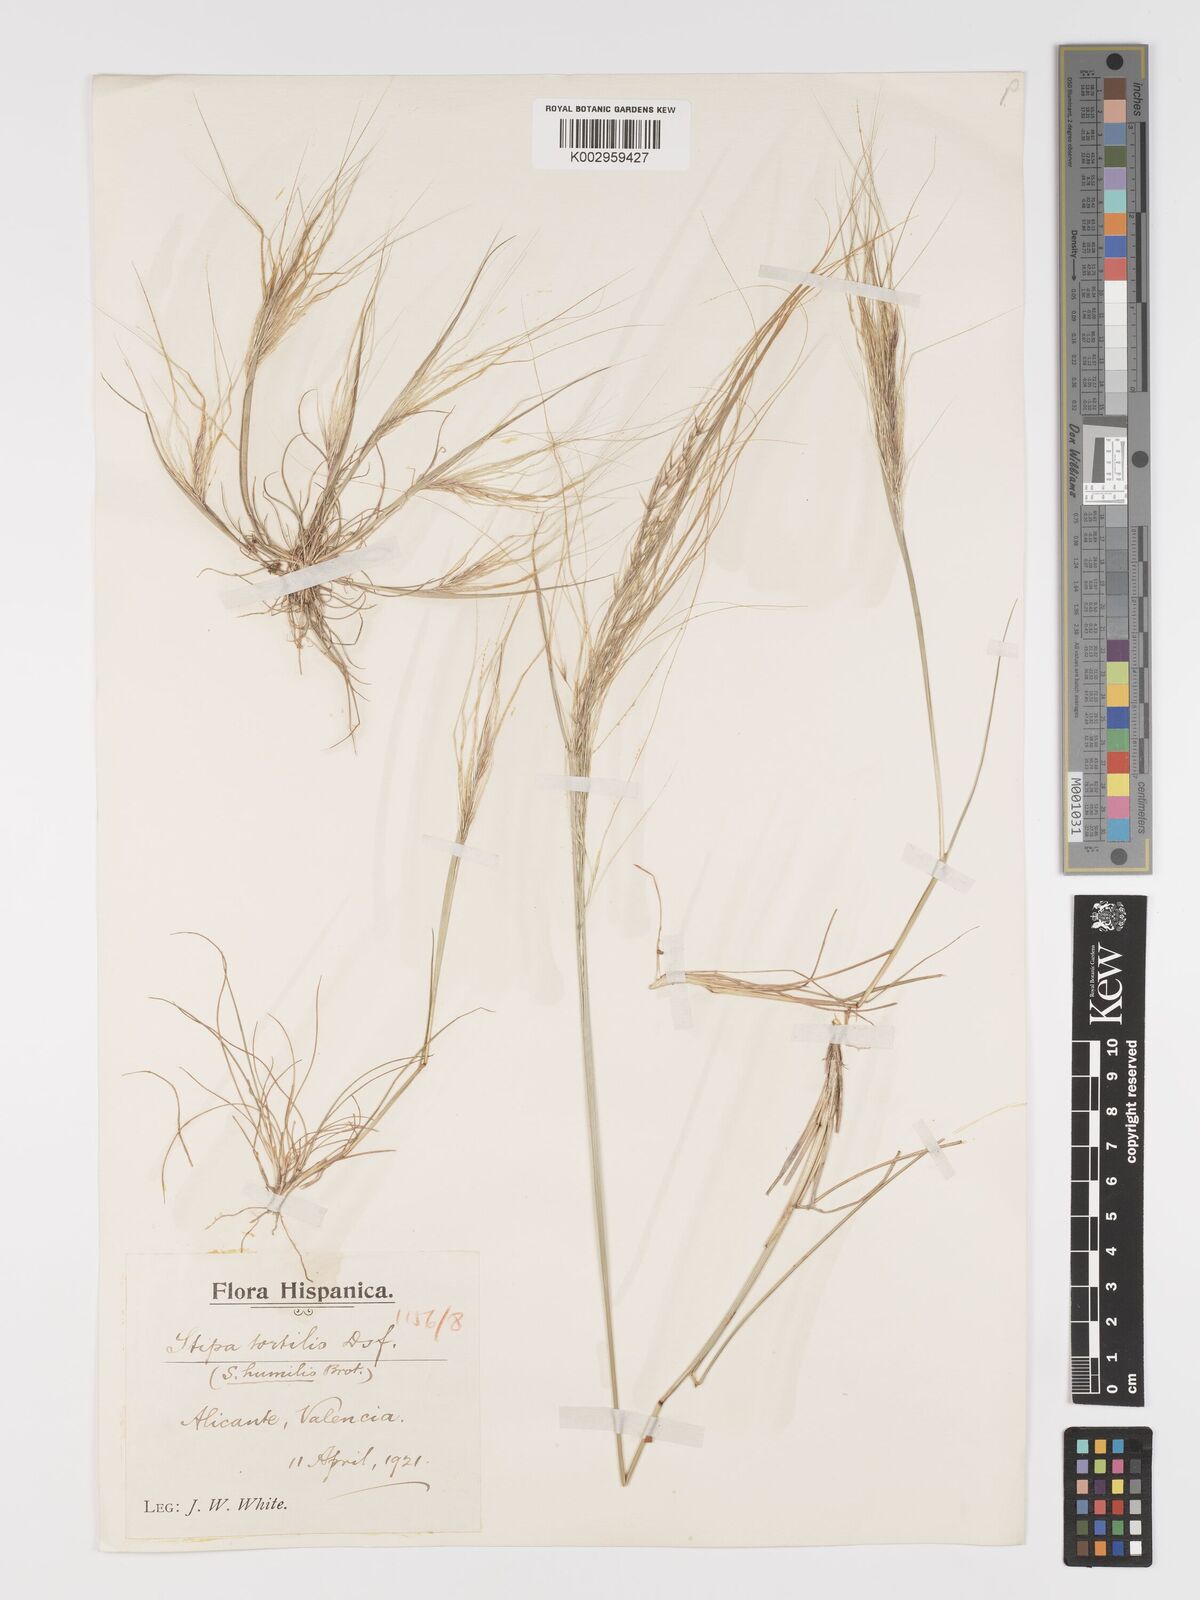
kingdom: Plantae
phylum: Tracheophyta
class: Liliopsida
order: Poales
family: Poaceae
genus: Stipa
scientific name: Stipa
